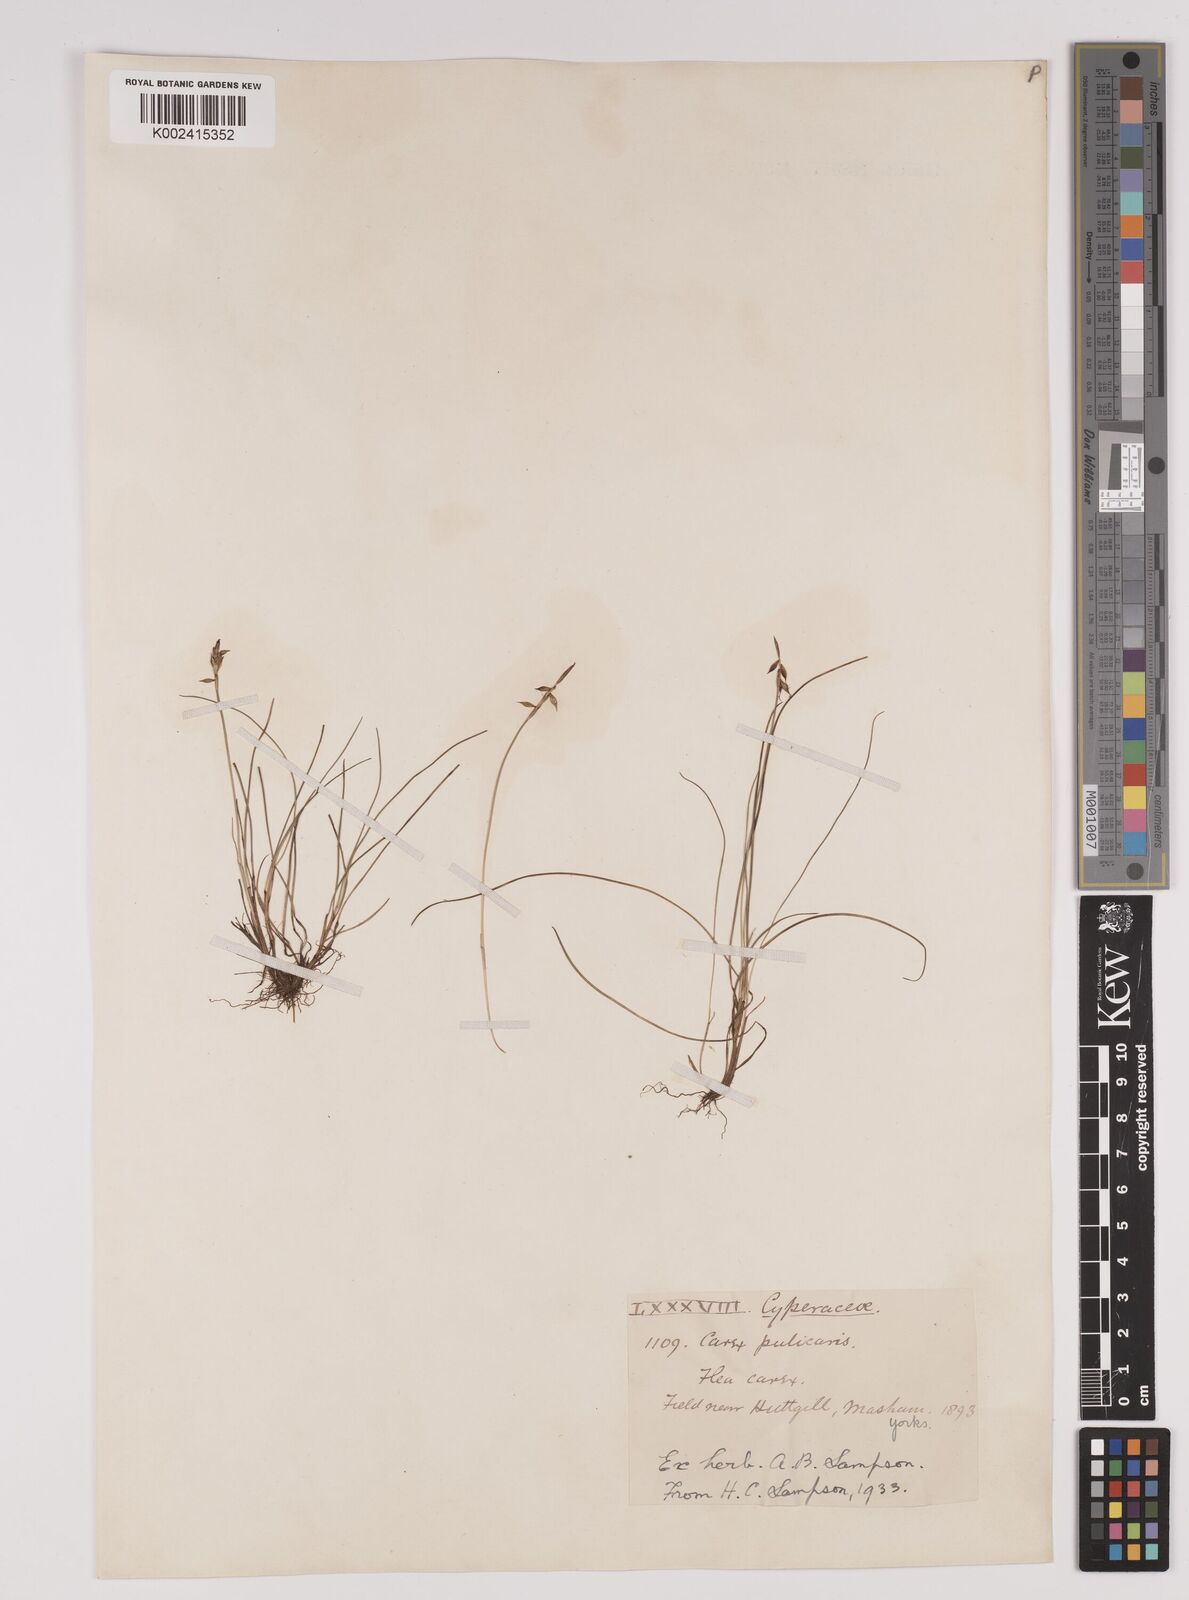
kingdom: Plantae
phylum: Tracheophyta
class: Liliopsida
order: Poales
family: Cyperaceae
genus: Carex
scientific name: Carex pulicaris
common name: Flea sedge
